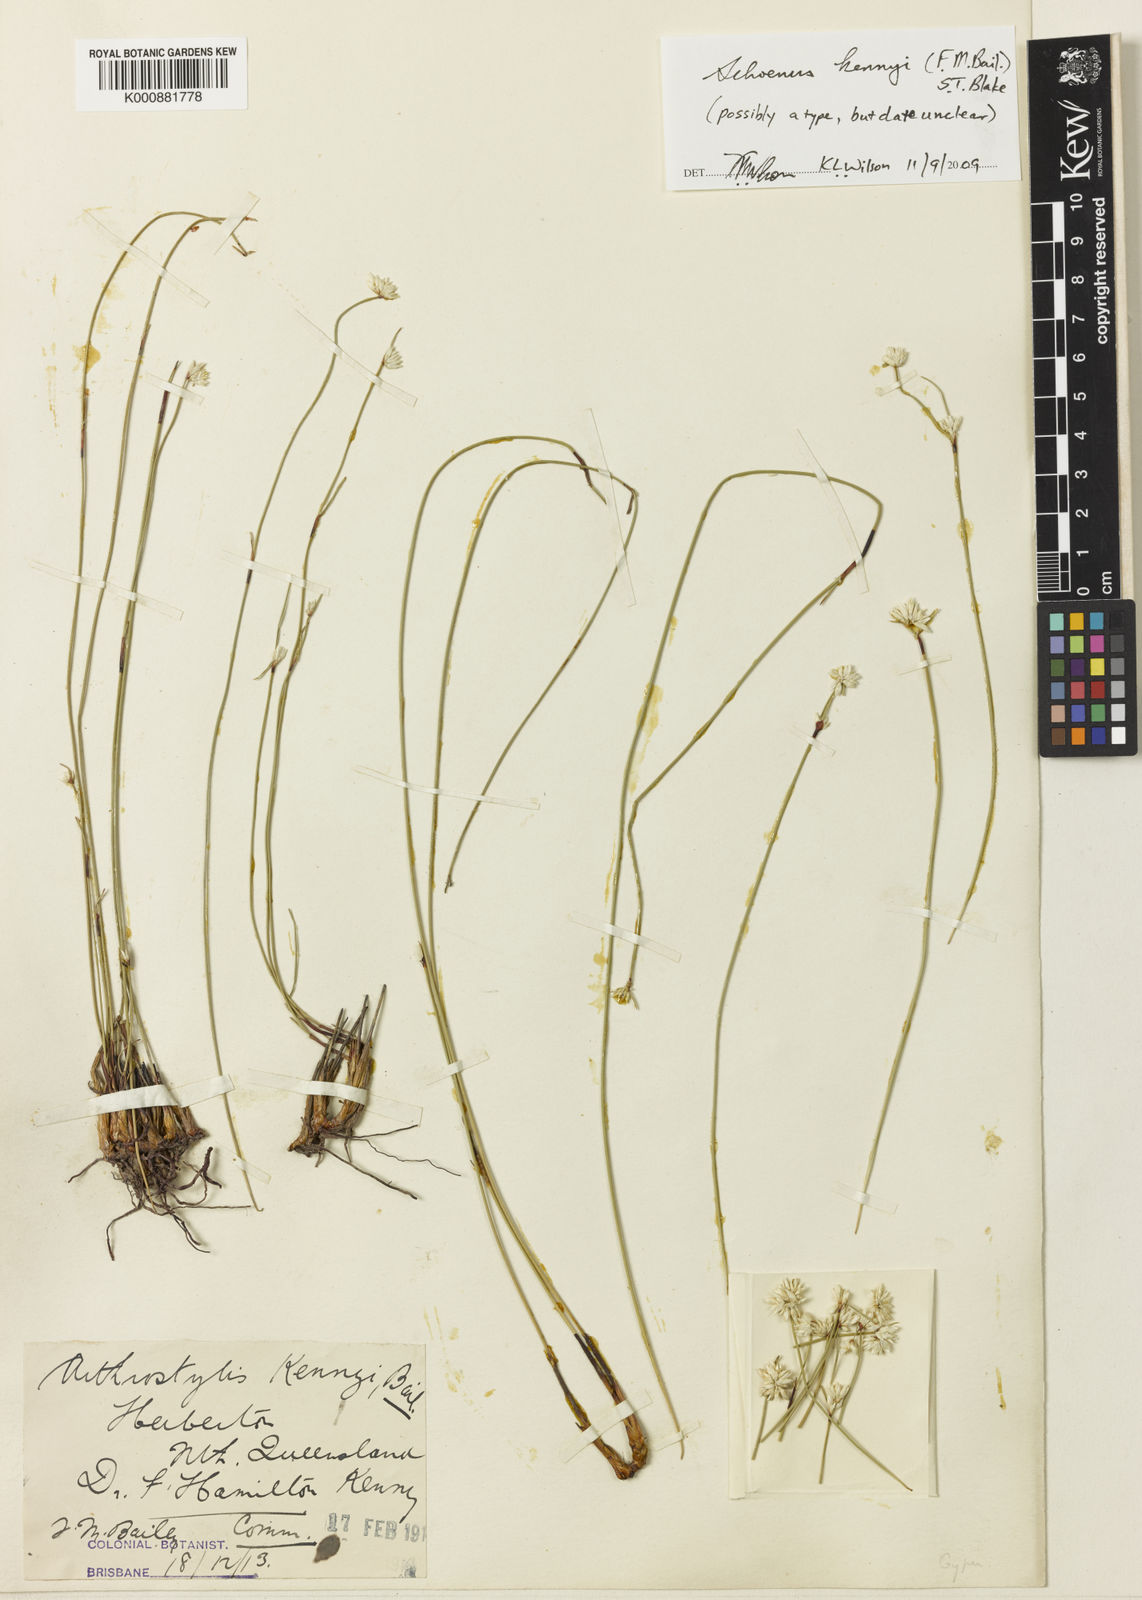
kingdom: Plantae
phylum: Tracheophyta
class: Liliopsida
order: Poales
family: Cyperaceae
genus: Schoenus
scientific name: Schoenus kennyi
